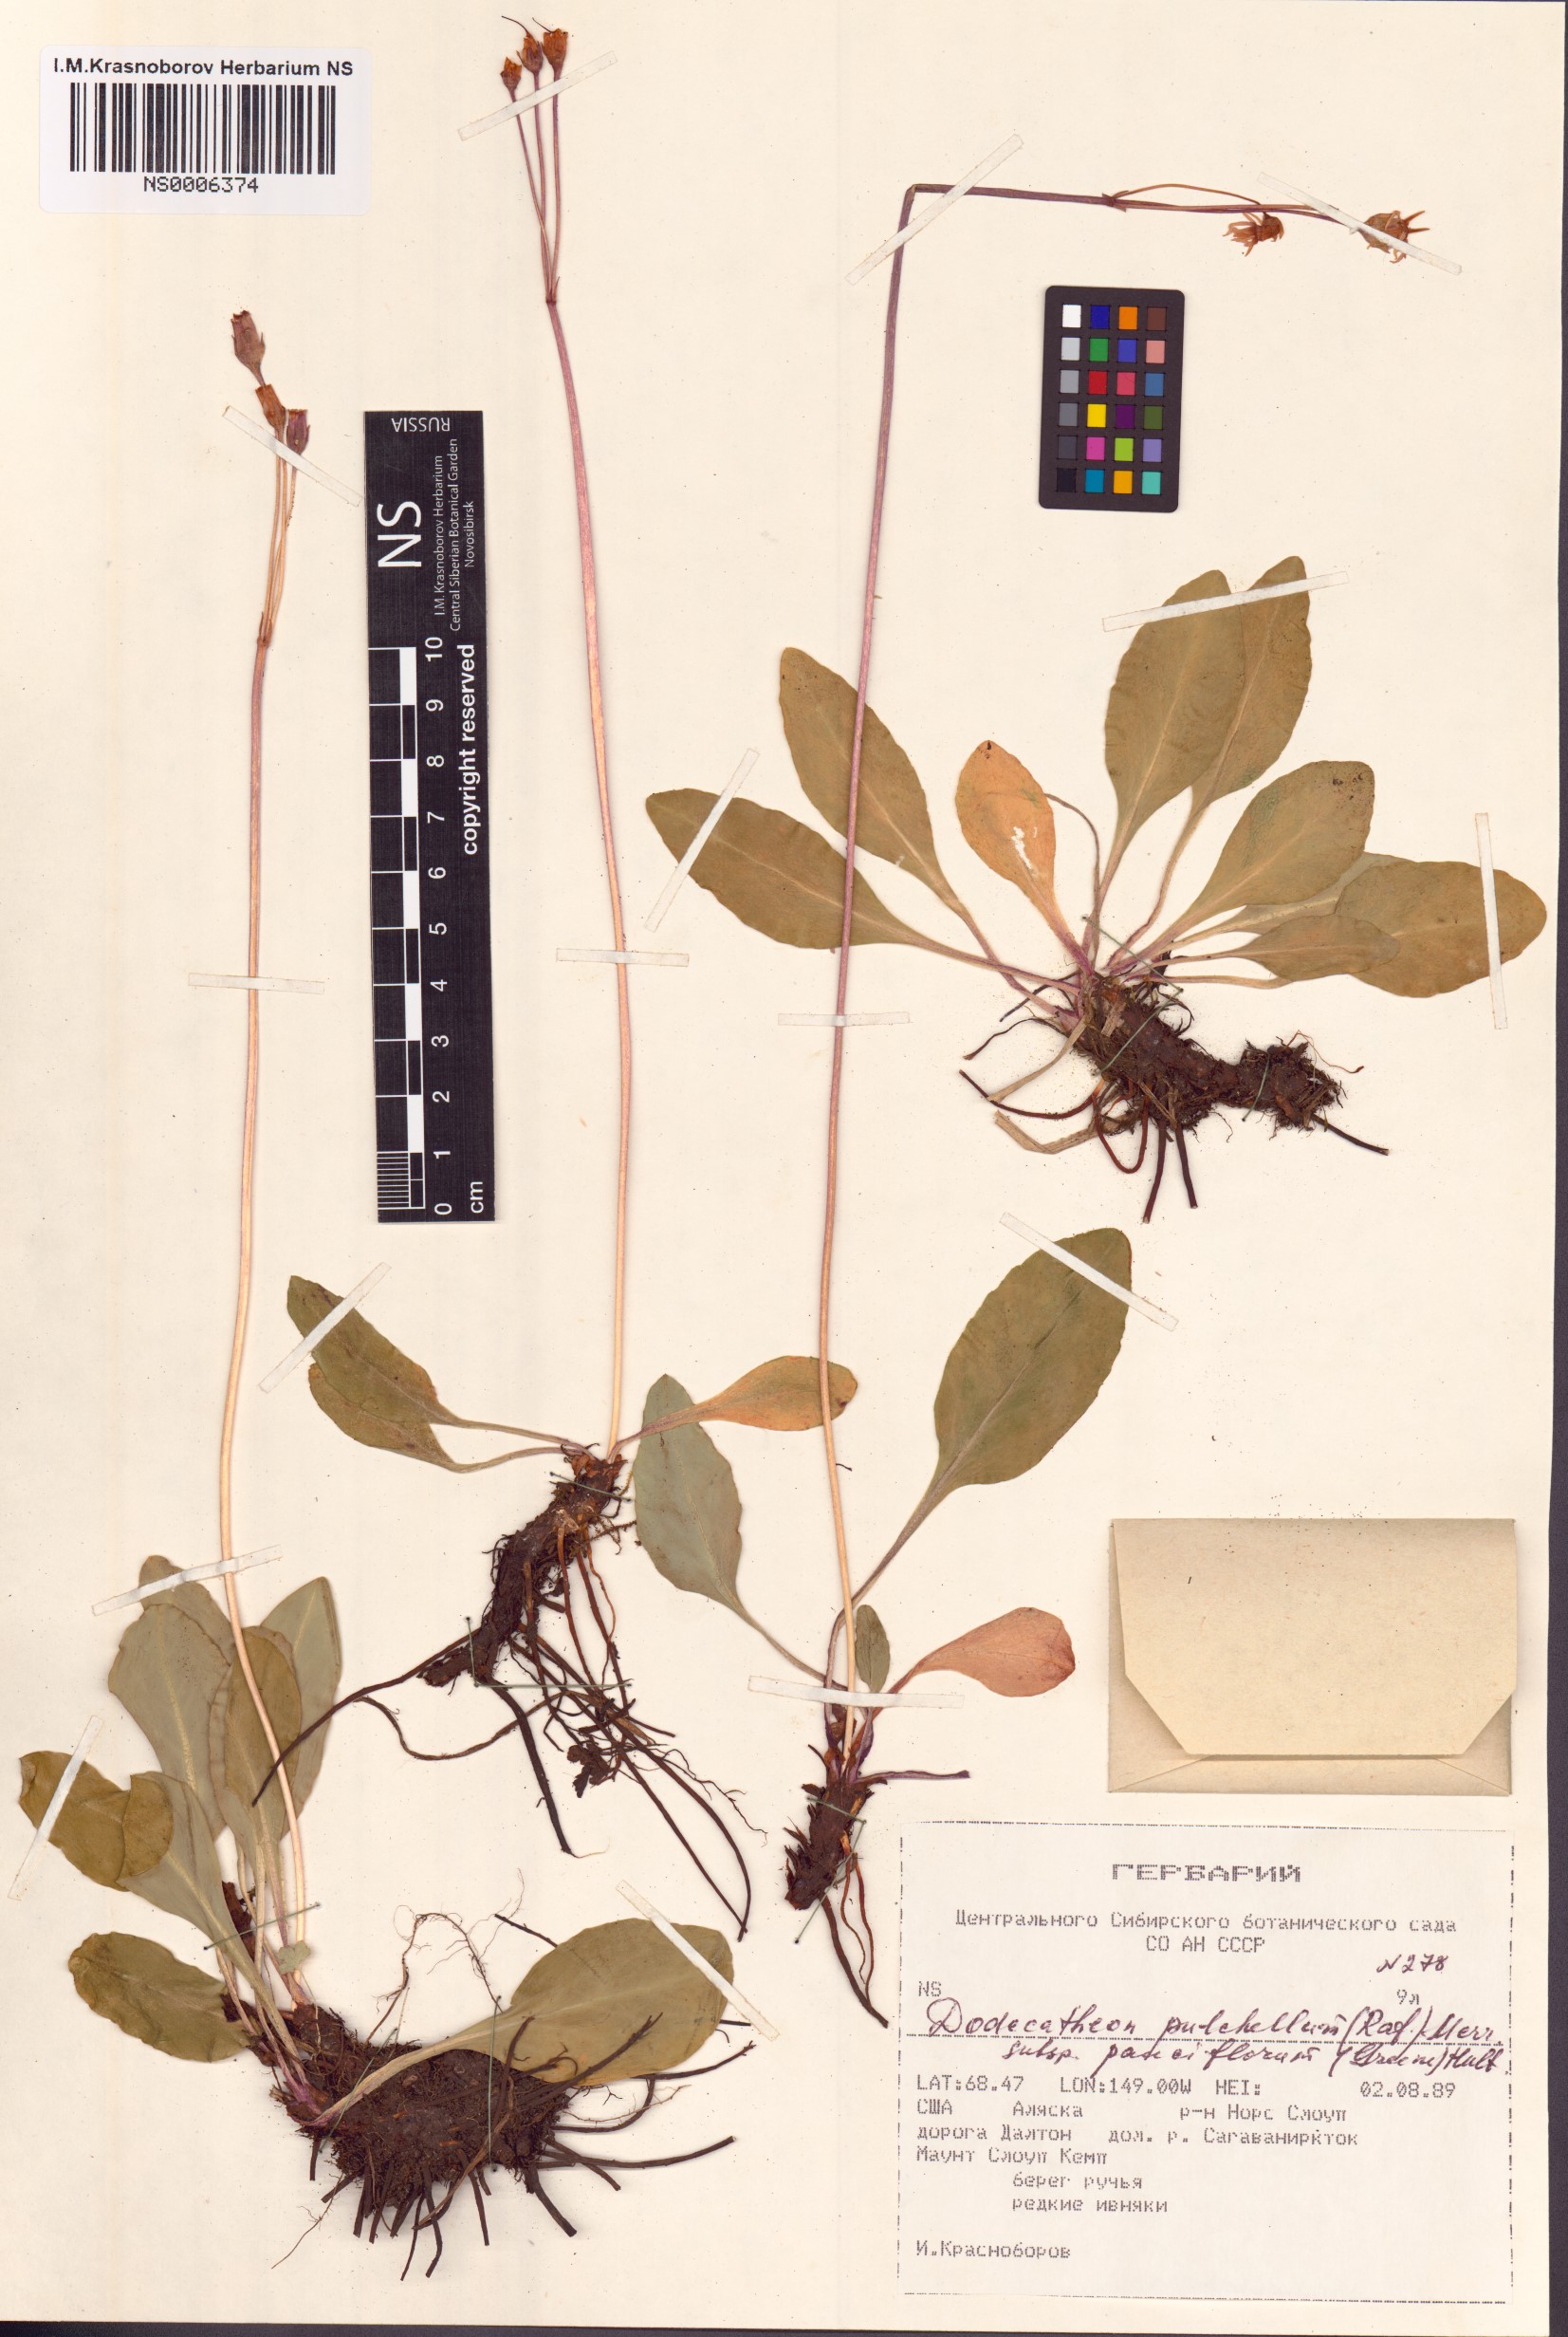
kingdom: Plantae
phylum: Tracheophyta
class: Magnoliopsida
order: Ericales
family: Primulaceae
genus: Dodecatheon
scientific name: Dodecatheon pulchellum
